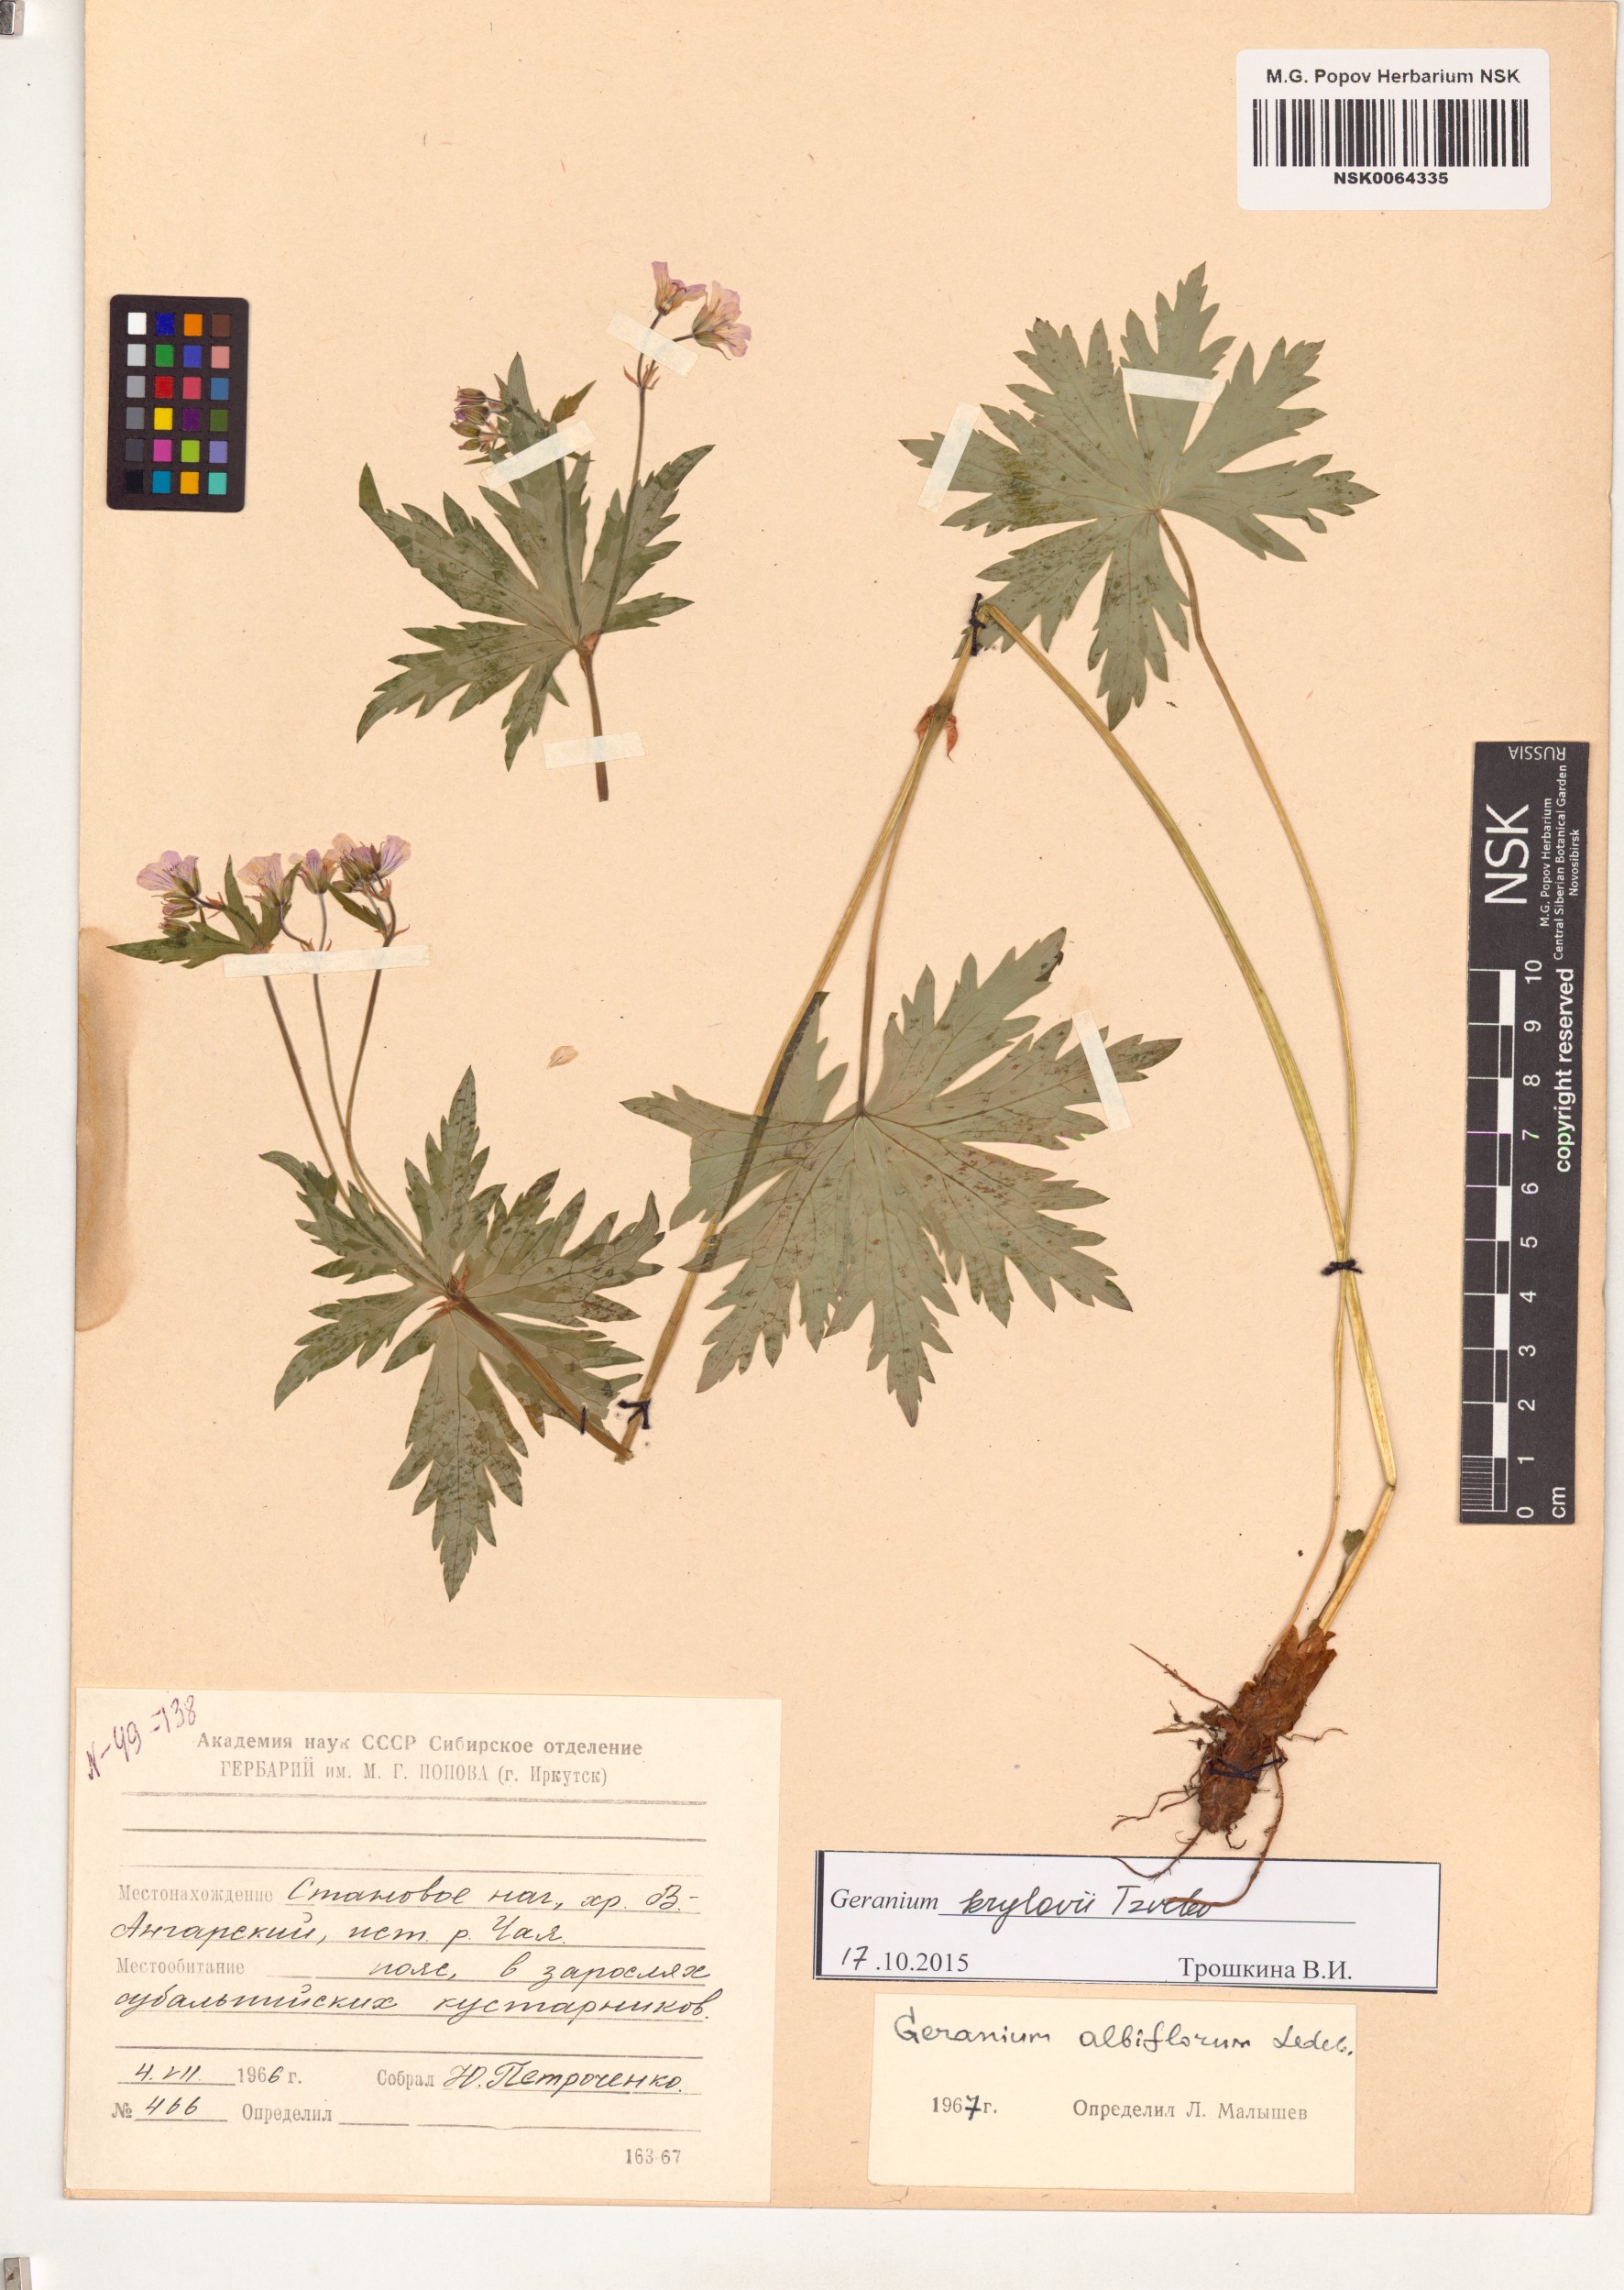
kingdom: Plantae
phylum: Tracheophyta
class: Magnoliopsida
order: Geraniales
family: Geraniaceae
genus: Geranium
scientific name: Geranium sylvaticum
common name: Wood crane's-bill
